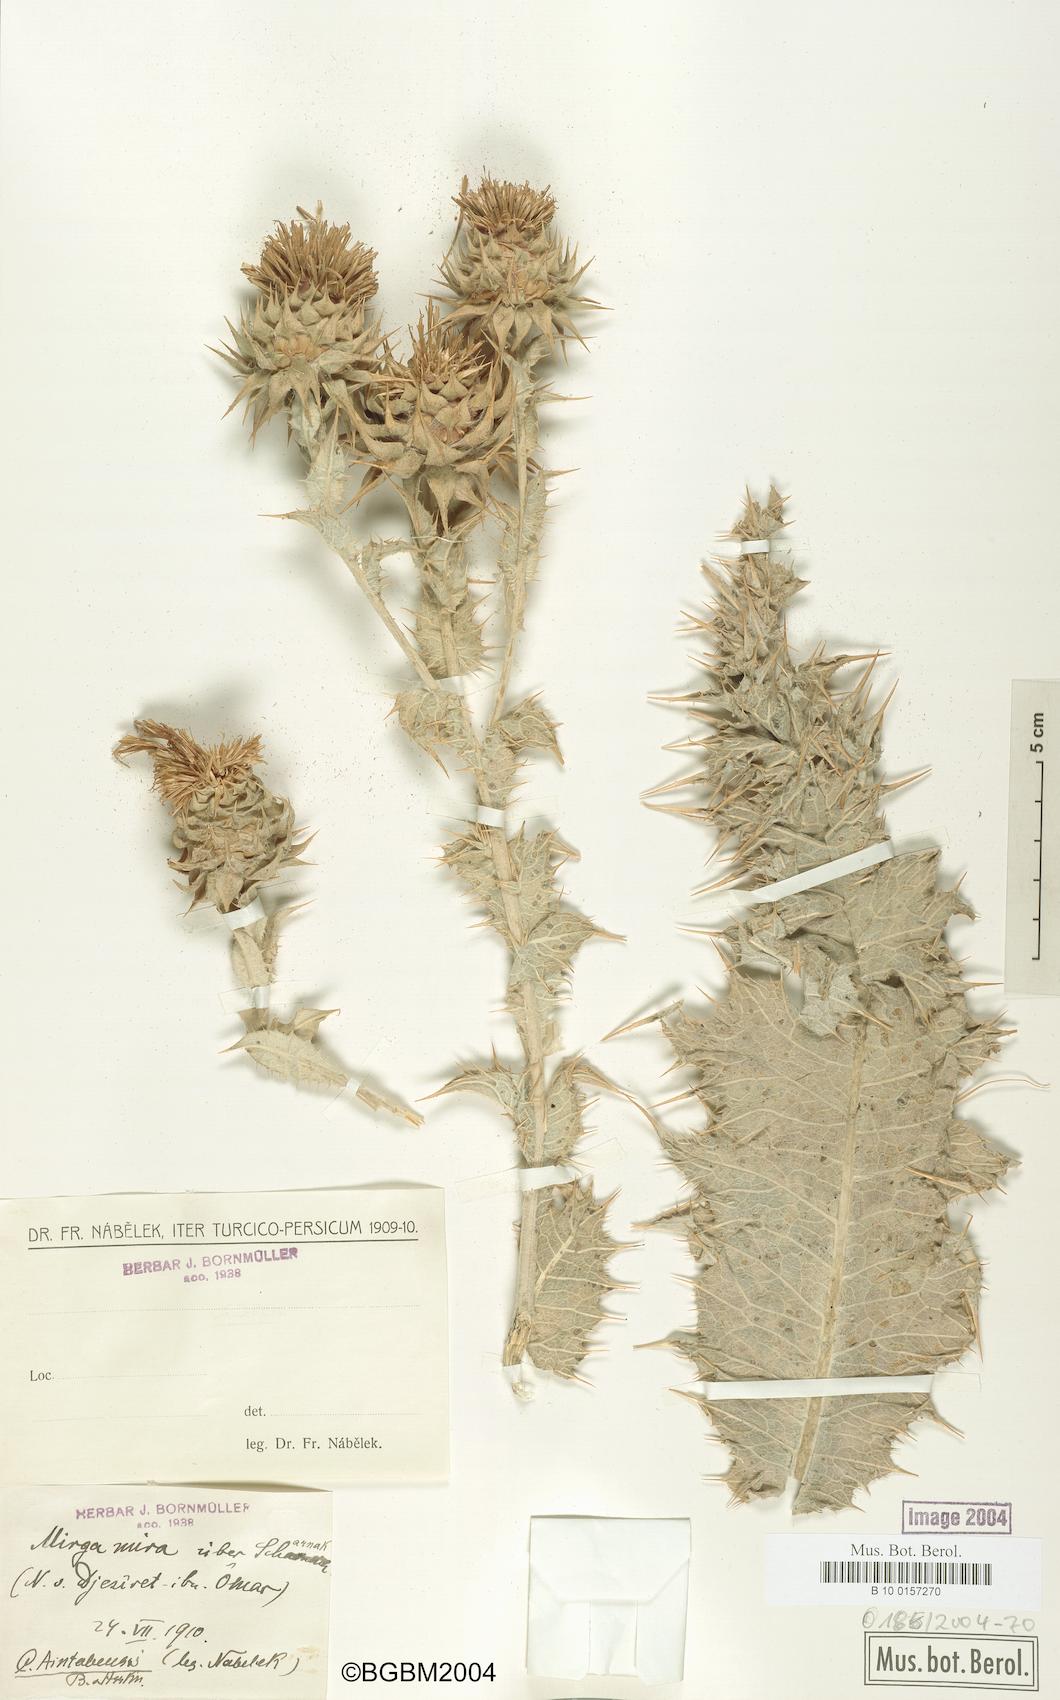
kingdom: Plantae
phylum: Tracheophyta
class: Magnoliopsida
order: Asterales
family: Asteraceae
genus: Cousinia
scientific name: Cousinia aintabensis
